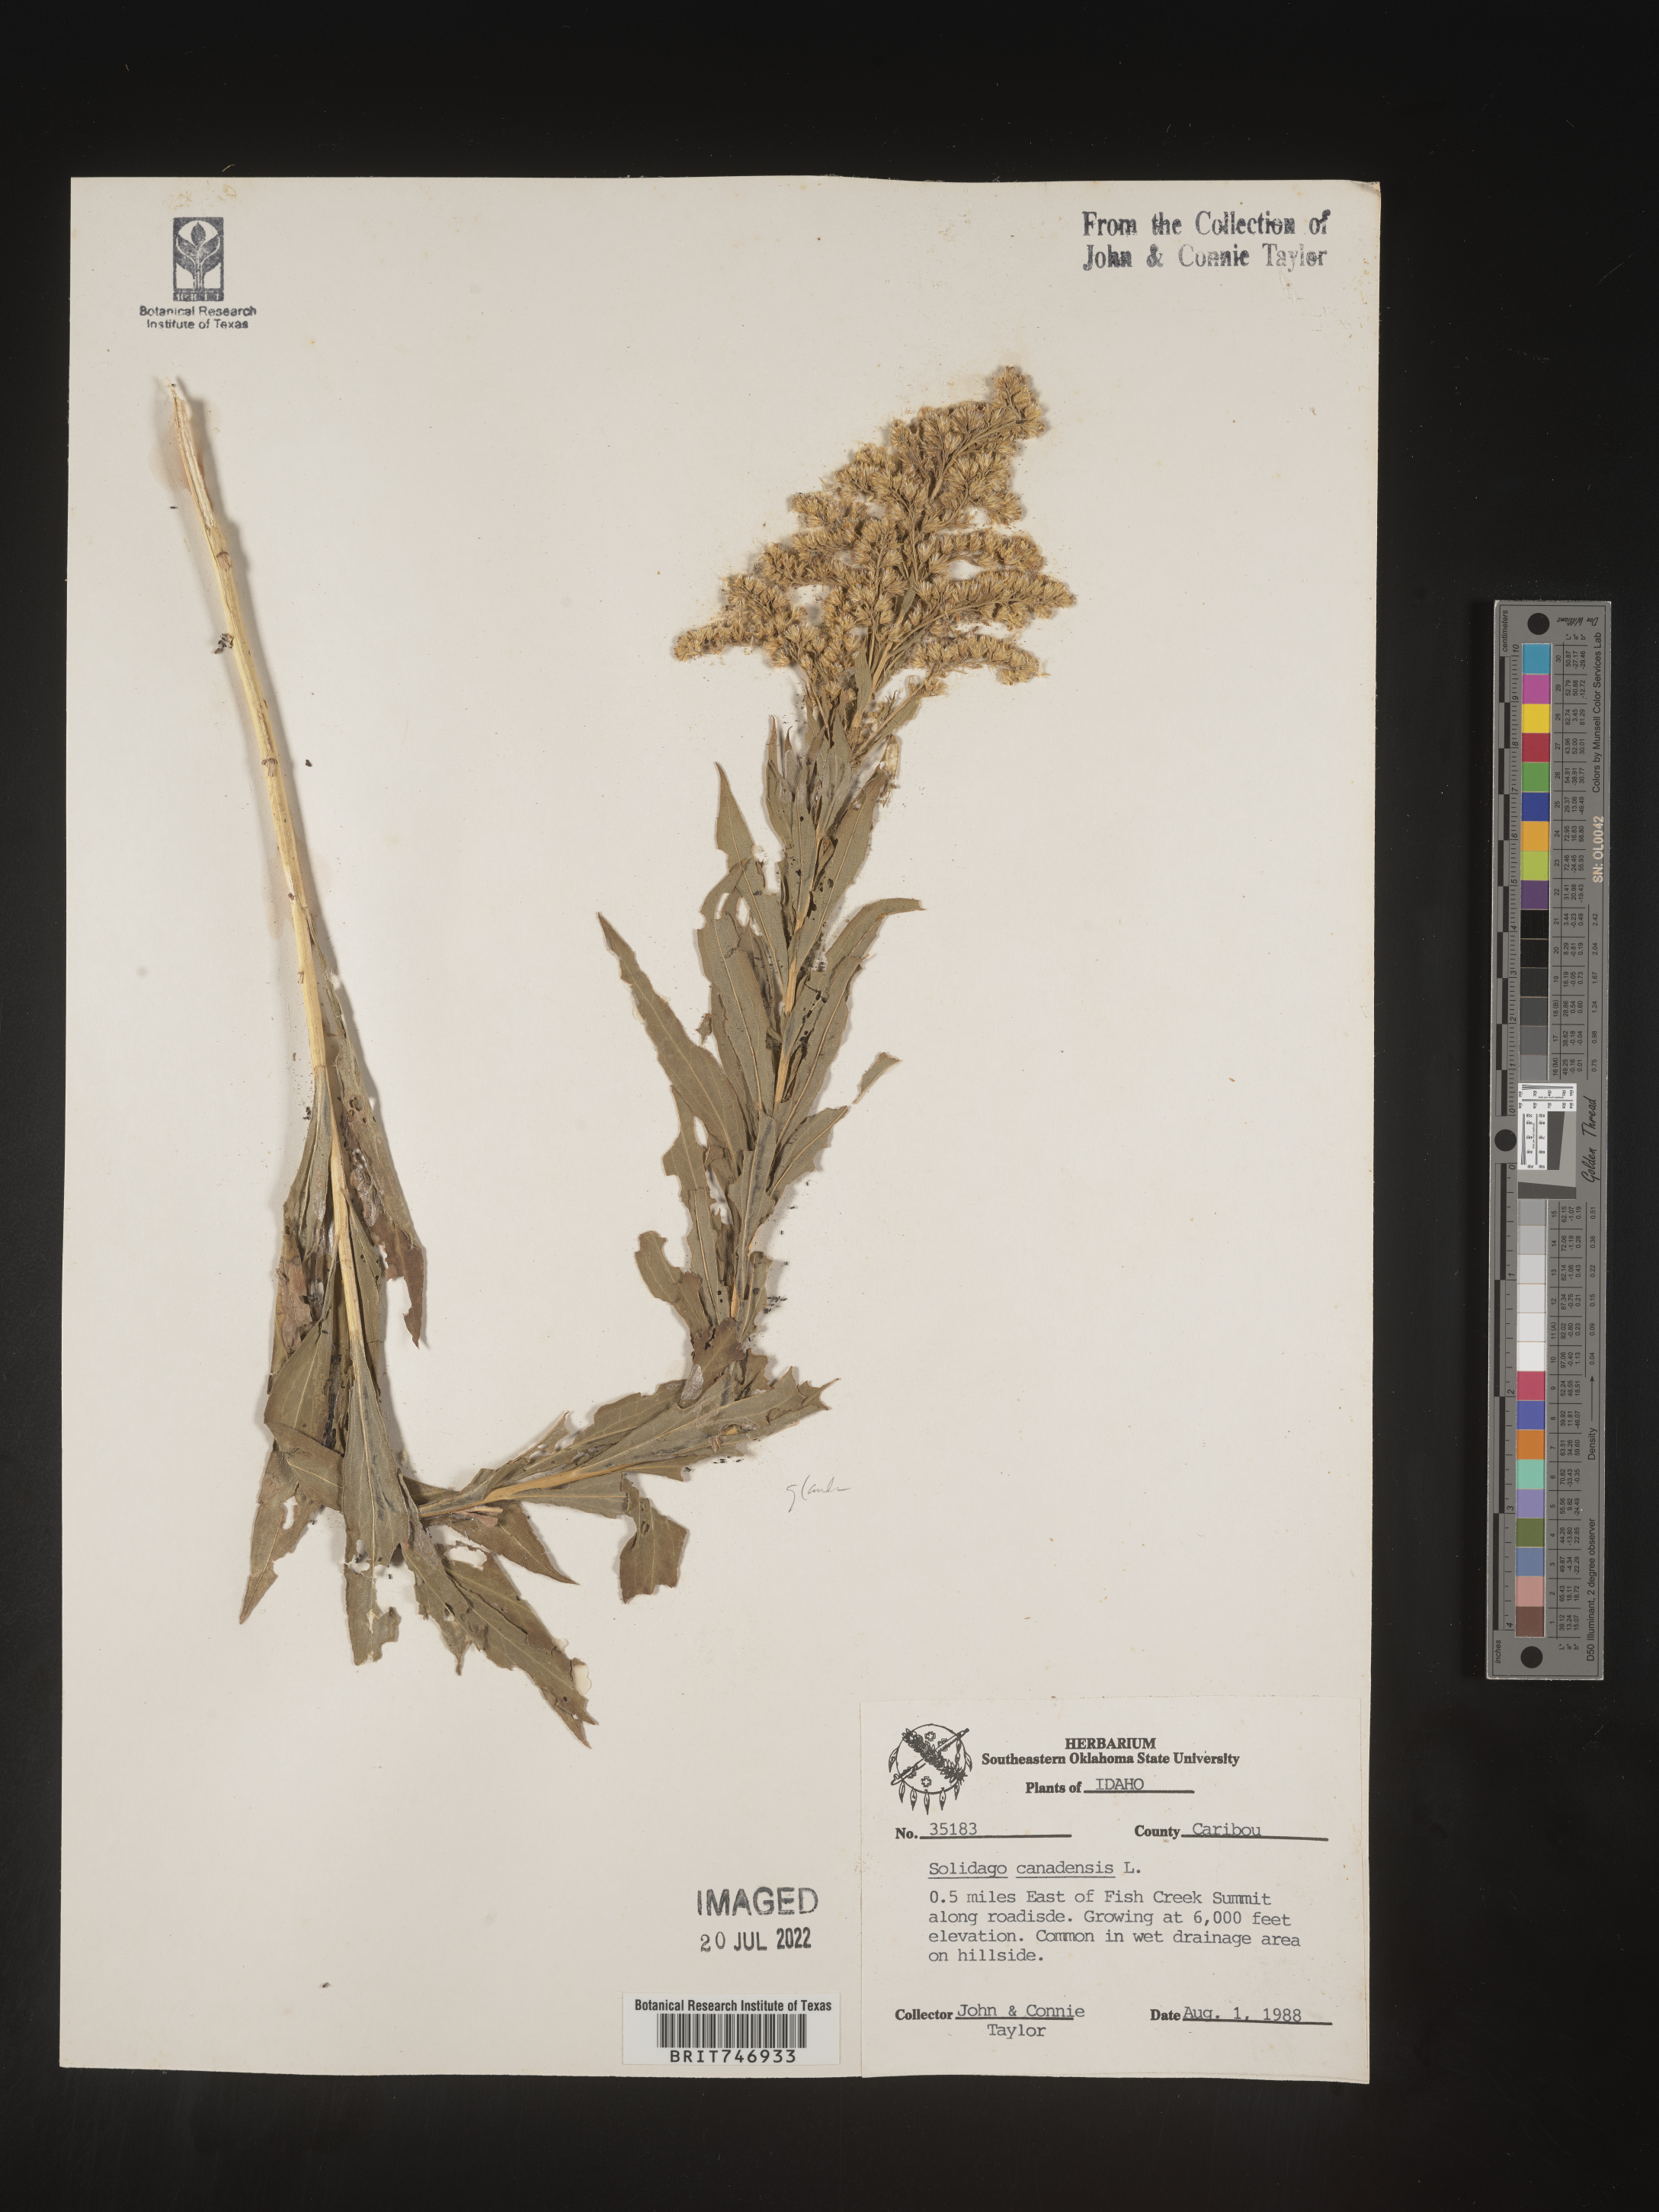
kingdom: Plantae
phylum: Tracheophyta
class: Magnoliopsida
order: Asterales
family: Asteraceae
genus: Solidago
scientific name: Solidago canadensis
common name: Canada goldenrod
